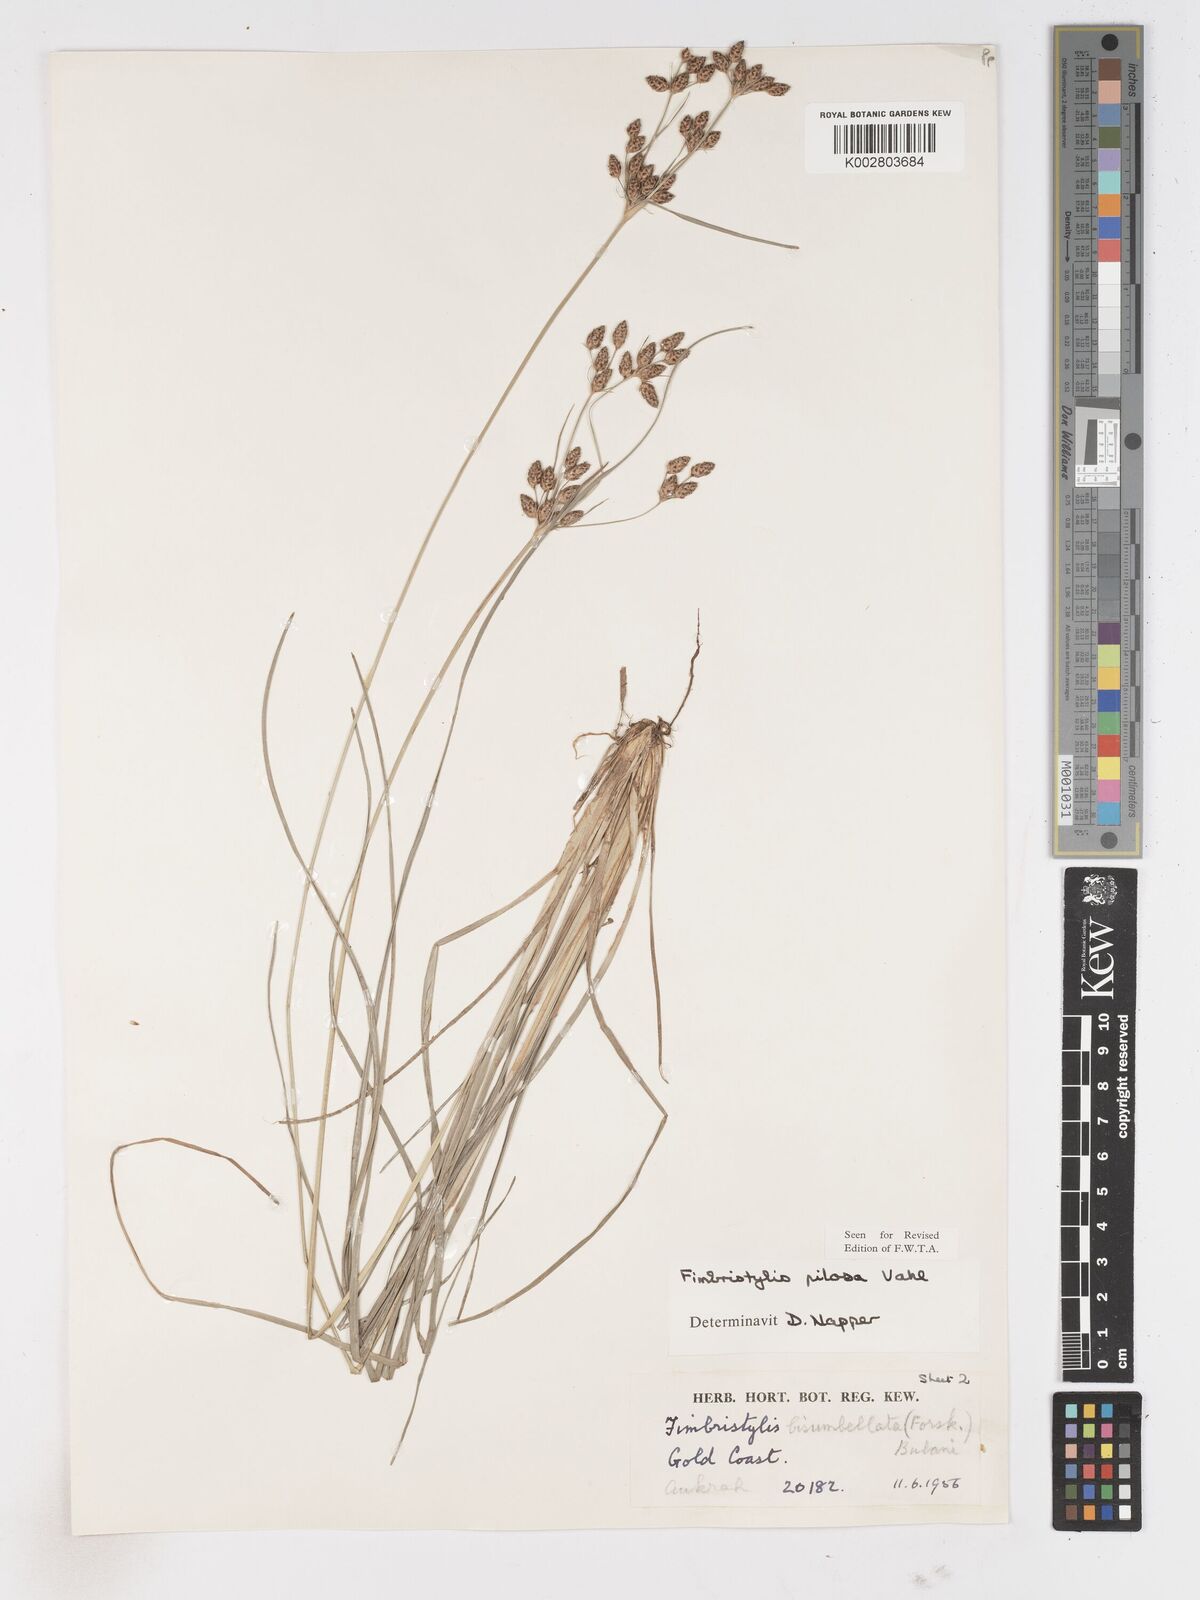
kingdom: Plantae
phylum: Tracheophyta
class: Liliopsida
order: Poales
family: Cyperaceae
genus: Fimbristylis
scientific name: Fimbristylis pilosa
